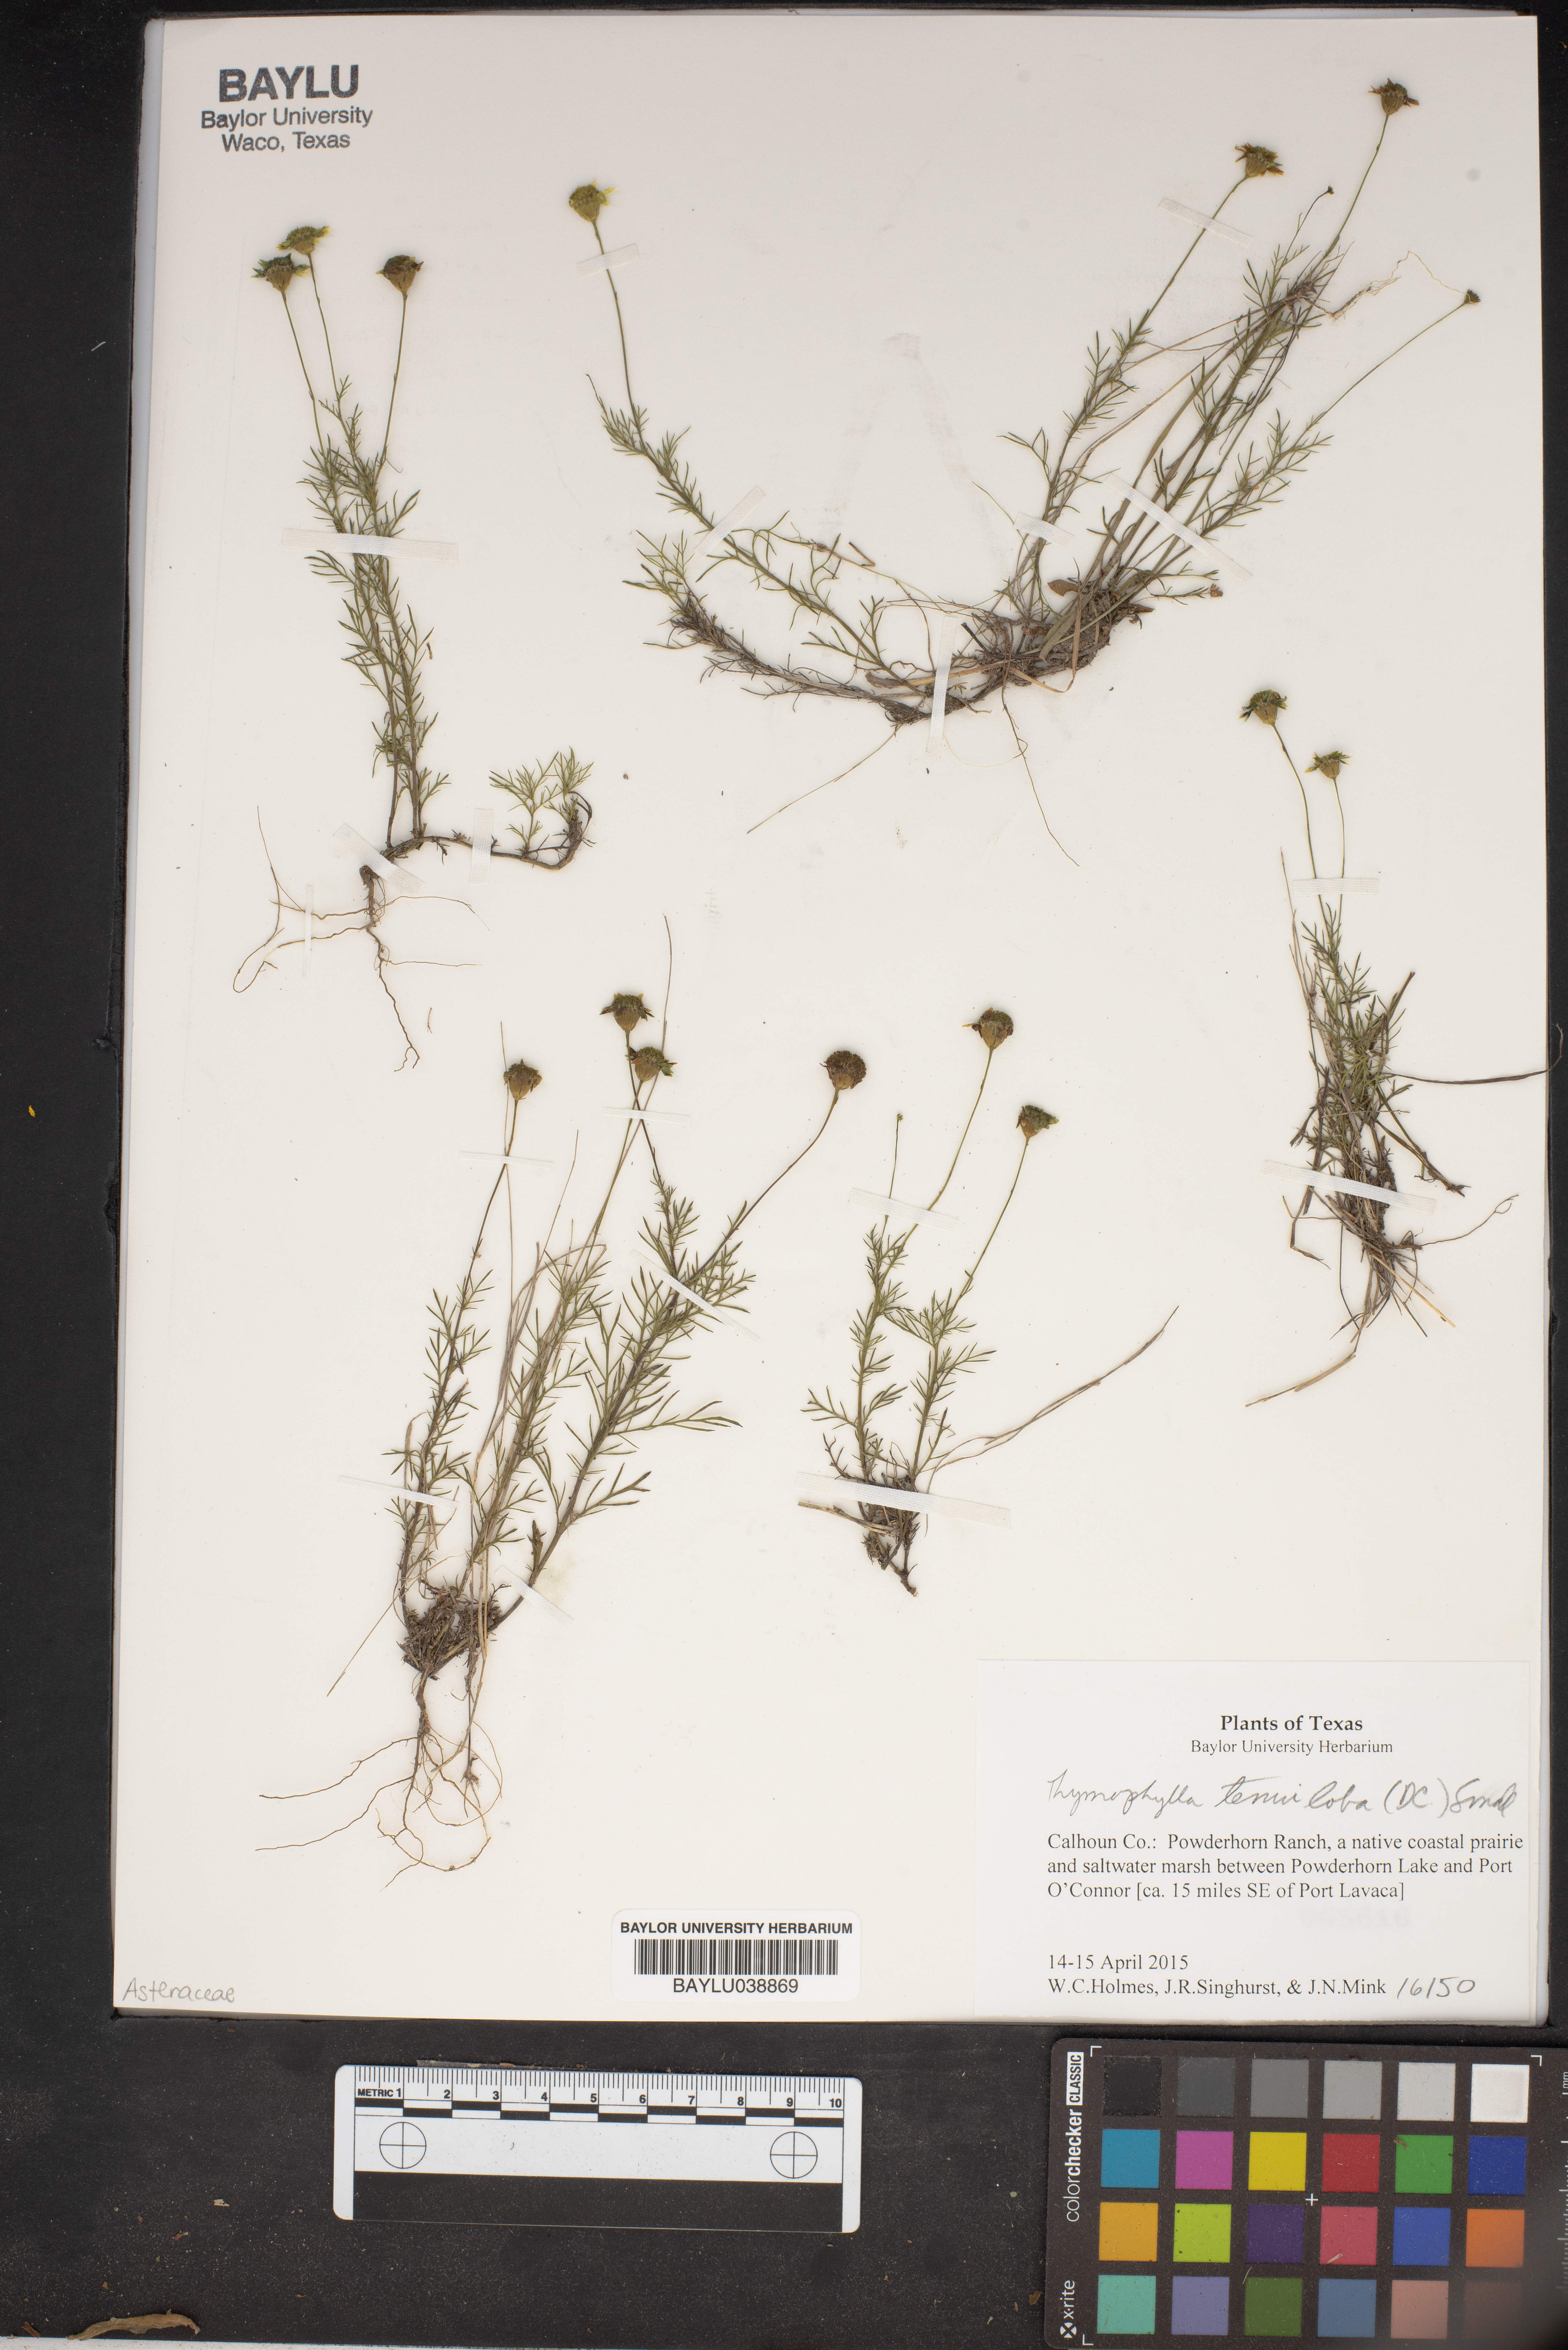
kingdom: Plantae
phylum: Tracheophyta
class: Magnoliopsida
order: Asterales
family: Asteraceae
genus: Thymophylla
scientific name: Thymophylla tenuiloba
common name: Dahlberg's daisy
